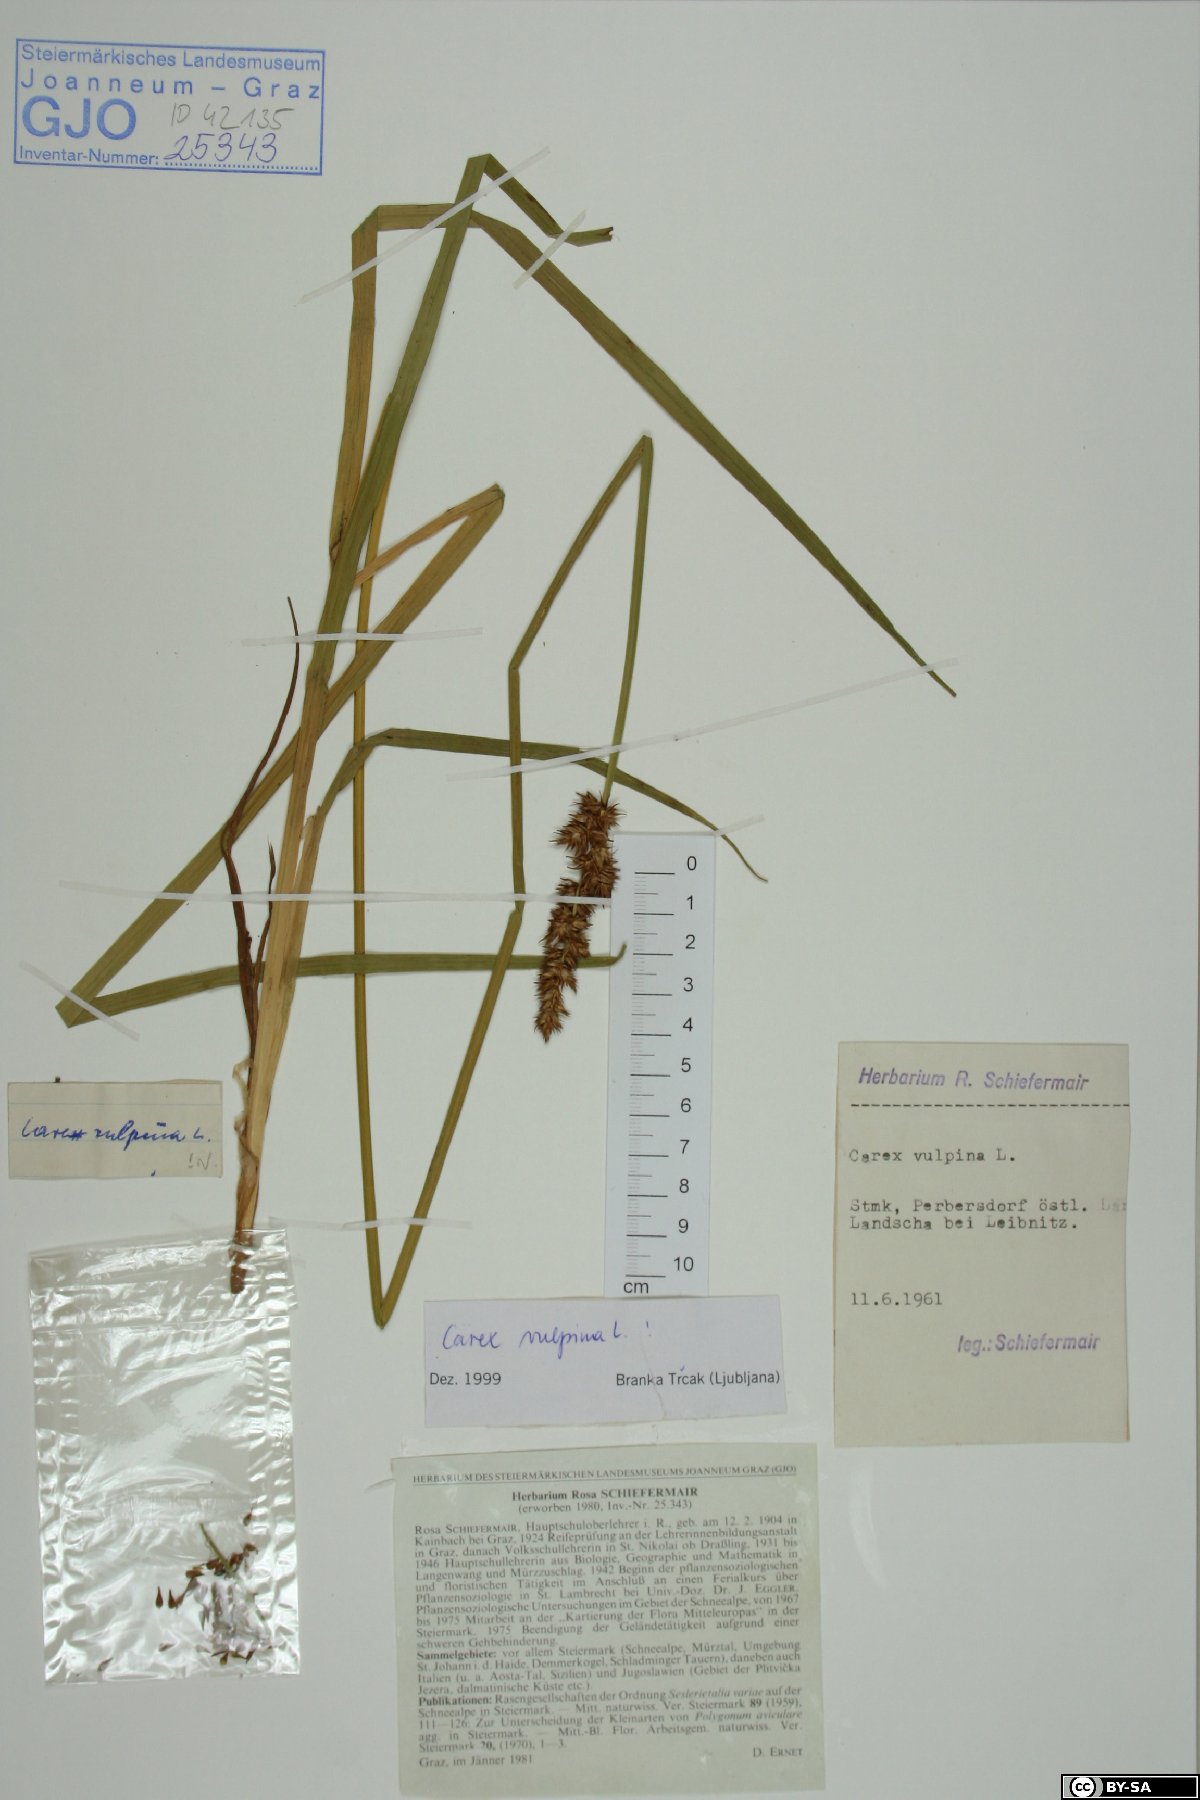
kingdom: Plantae
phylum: Tracheophyta
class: Liliopsida
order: Poales
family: Cyperaceae
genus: Carex
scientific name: Carex vulpina
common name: True fox-sedge
